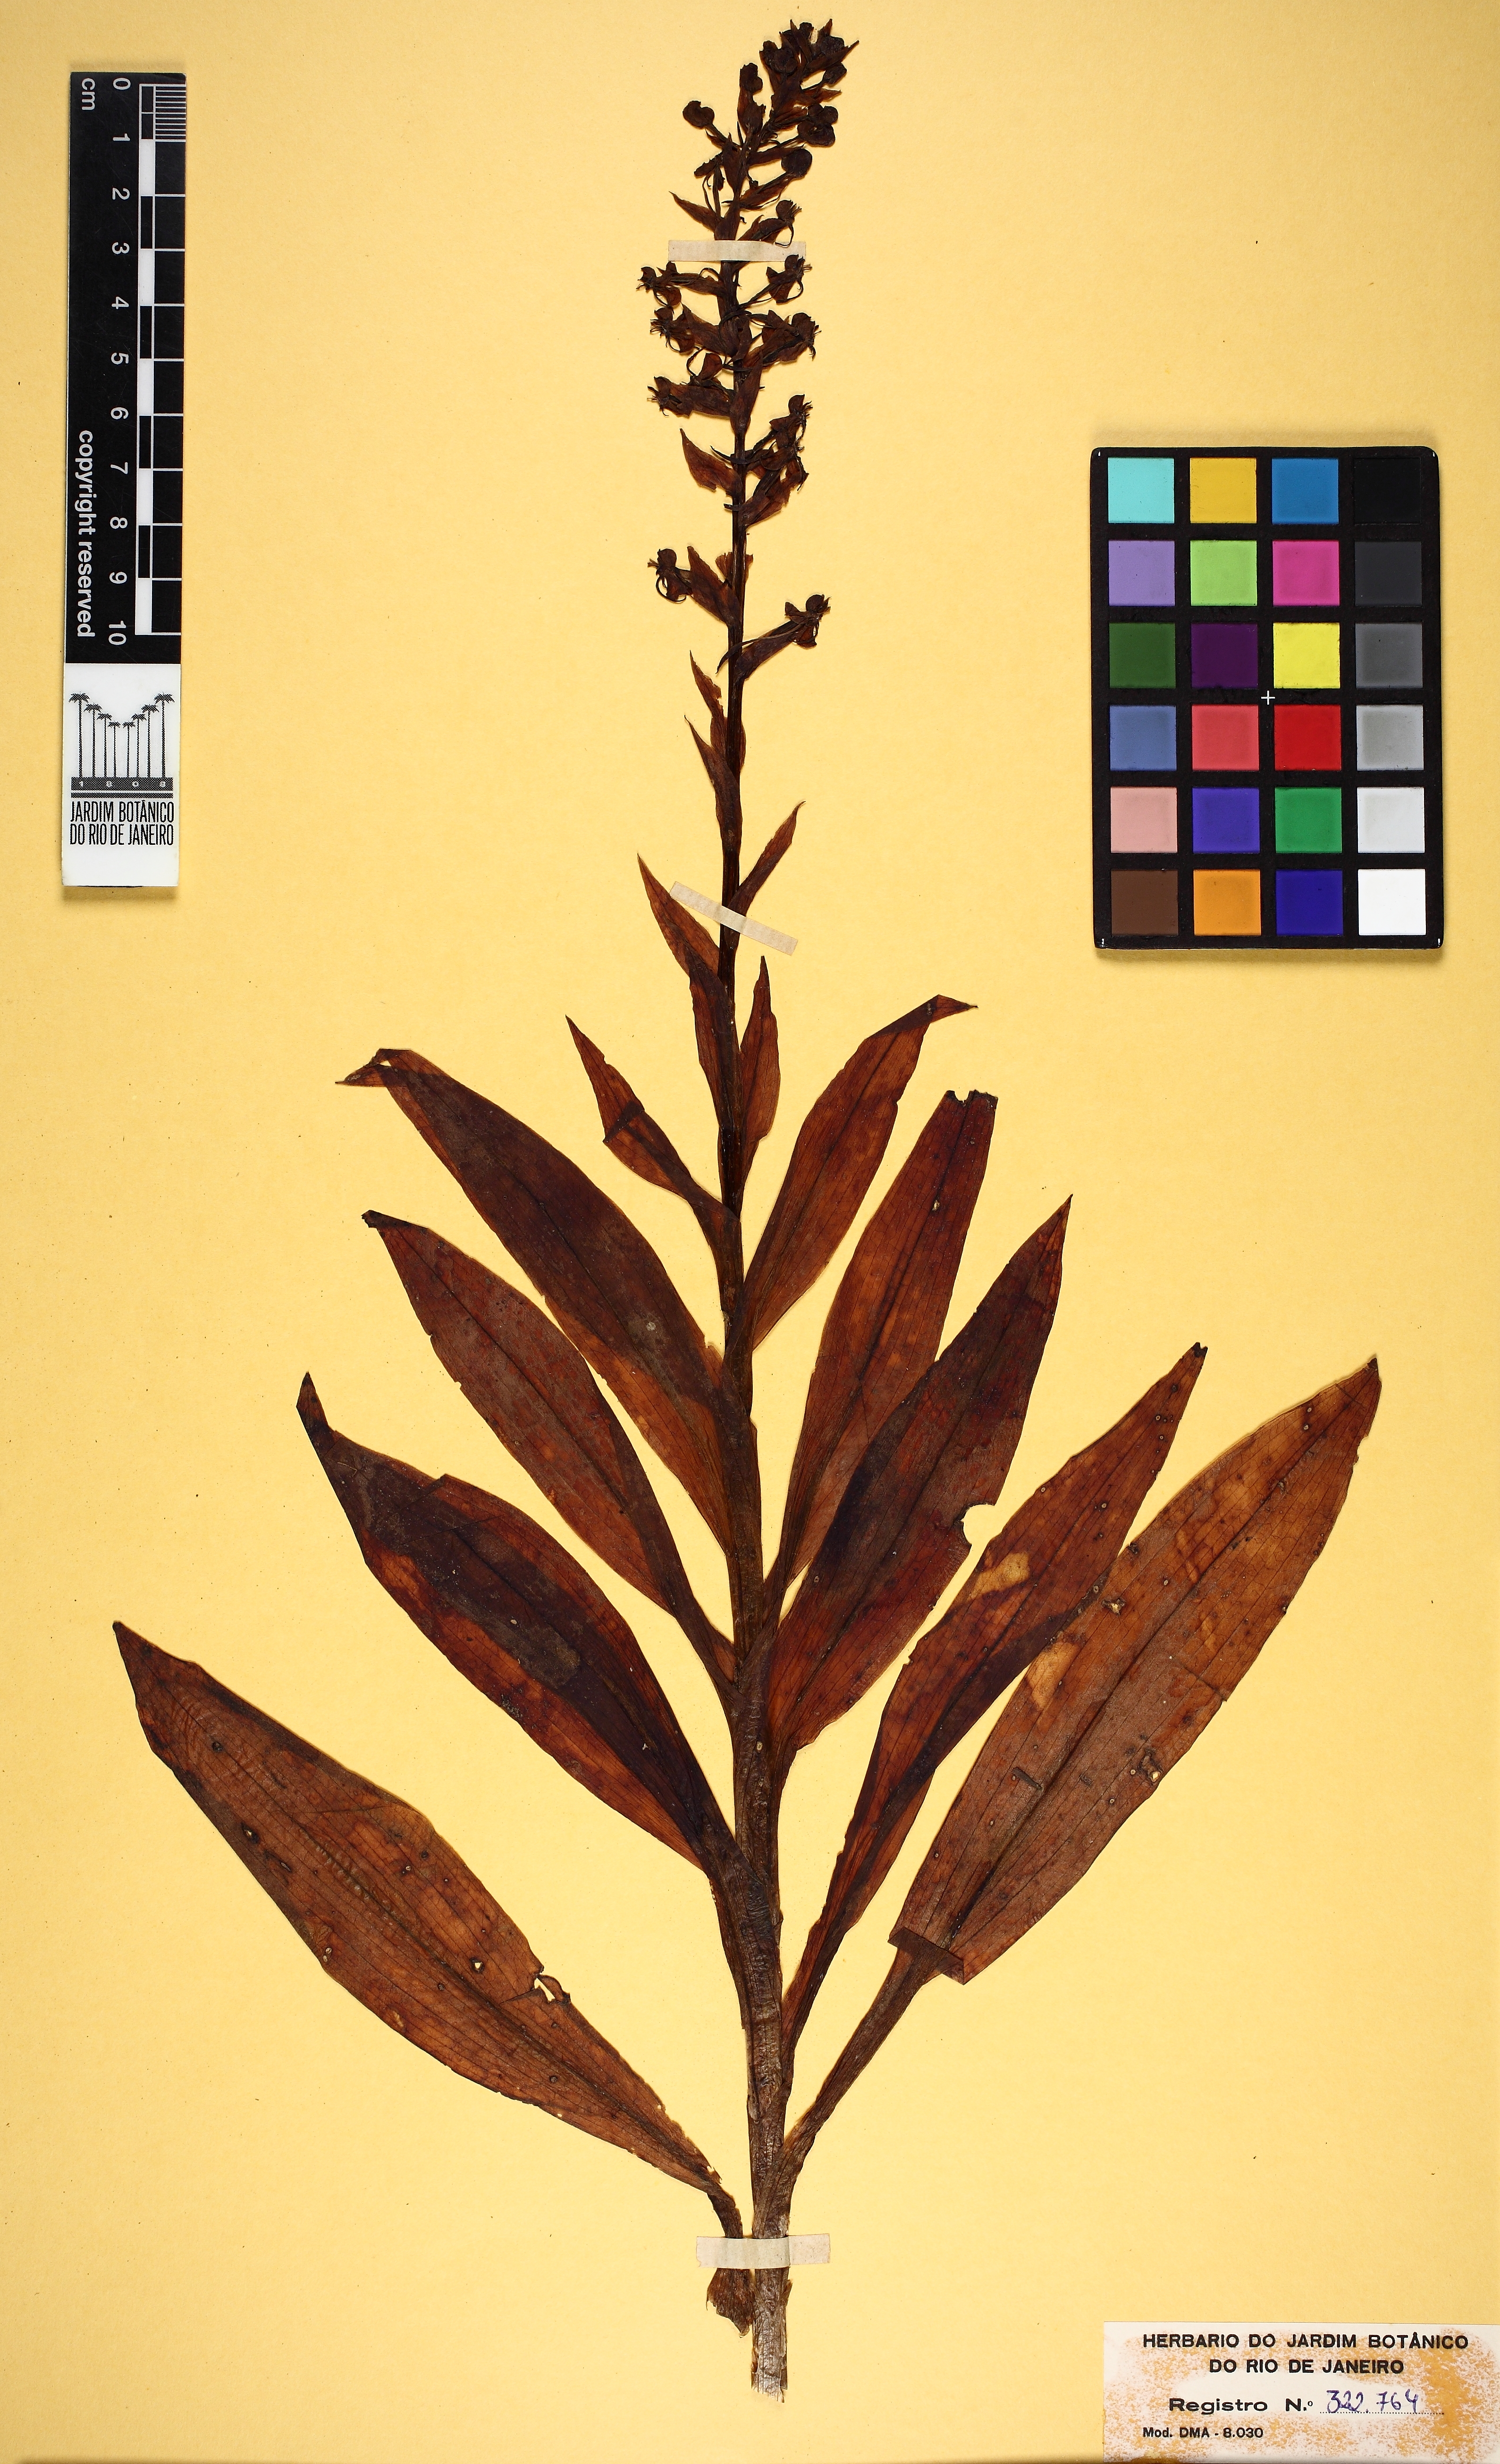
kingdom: Plantae
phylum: Tracheophyta
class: Liliopsida
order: Asparagales
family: Orchidaceae
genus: Habenaria
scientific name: Habenaria leptoceras
